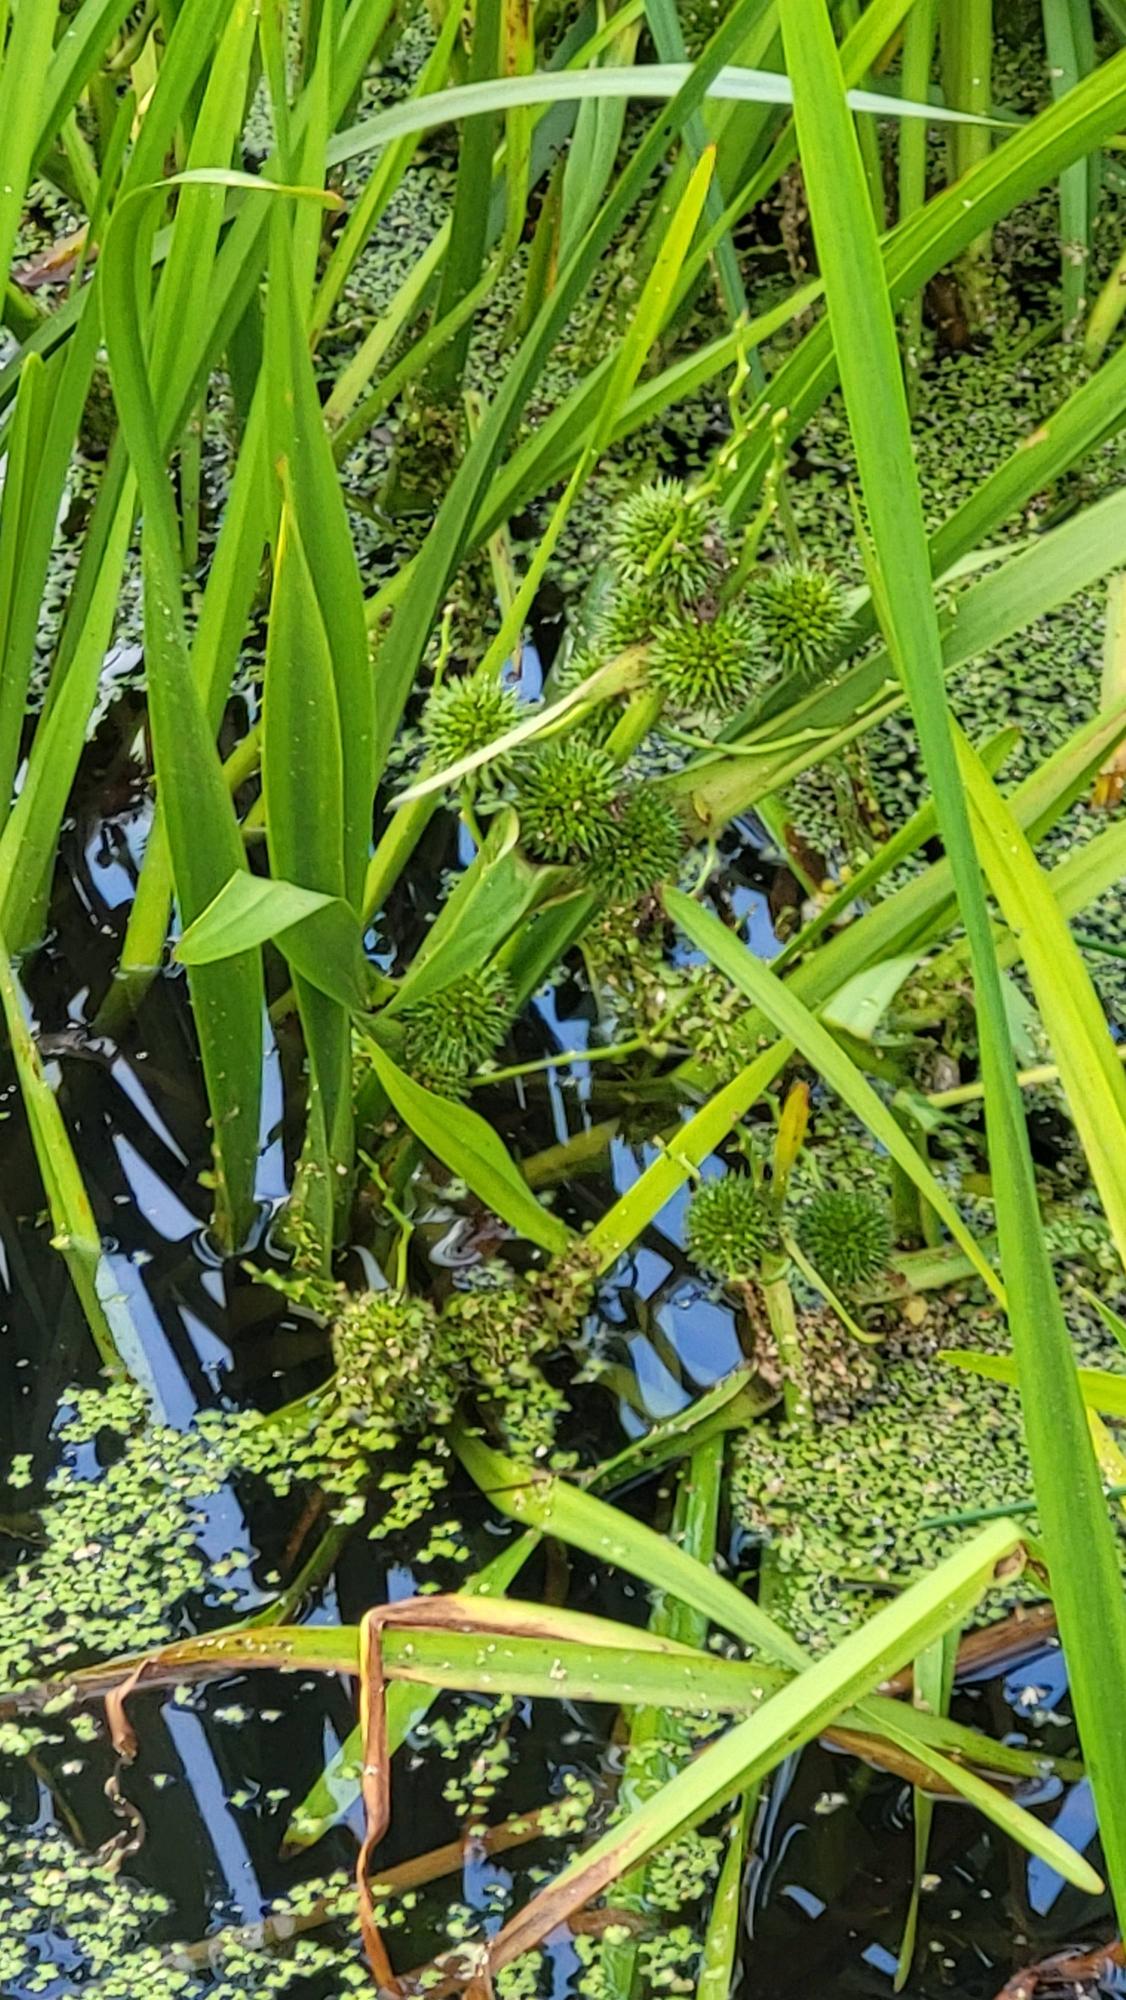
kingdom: Plantae
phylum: Tracheophyta
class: Liliopsida
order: Poales
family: Typhaceae
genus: Sparganium
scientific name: Sparganium erectum
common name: Grenet pindsvineknop
